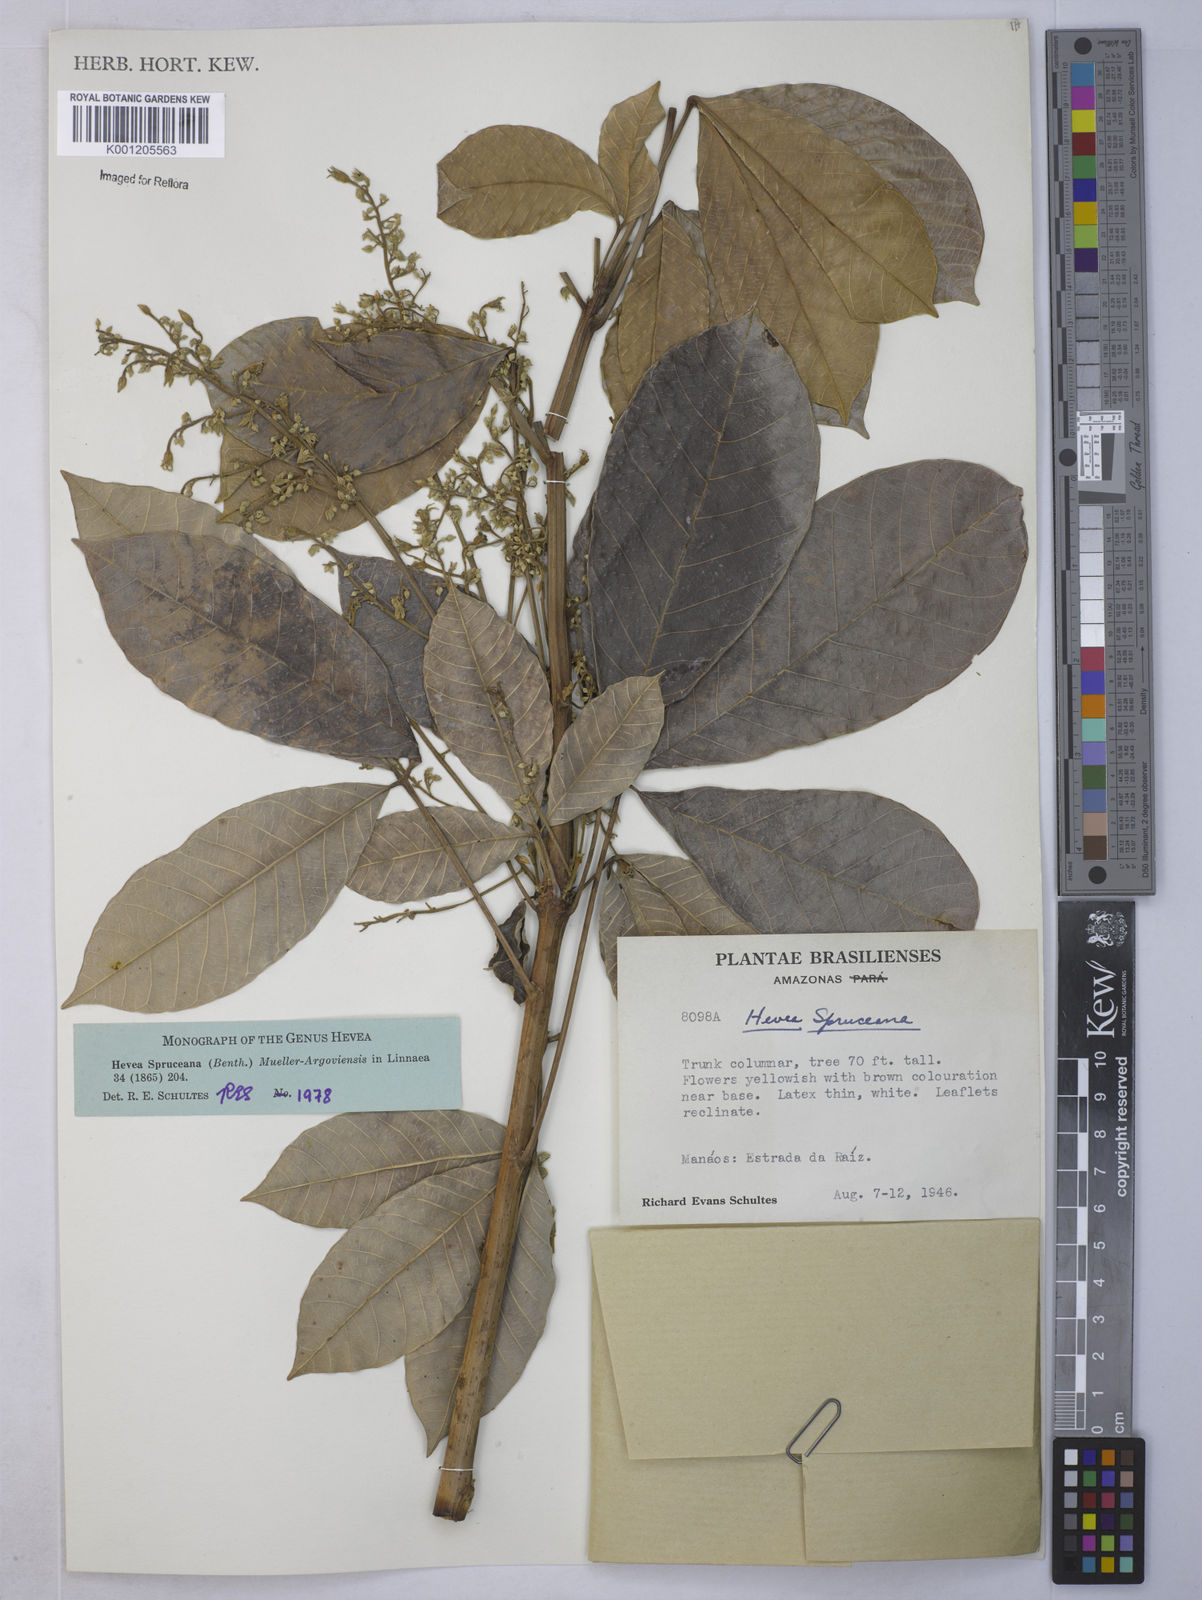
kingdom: Plantae
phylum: Tracheophyta
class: Magnoliopsida
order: Malpighiales
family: Euphorbiaceae
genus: Hevea
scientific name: Hevea
